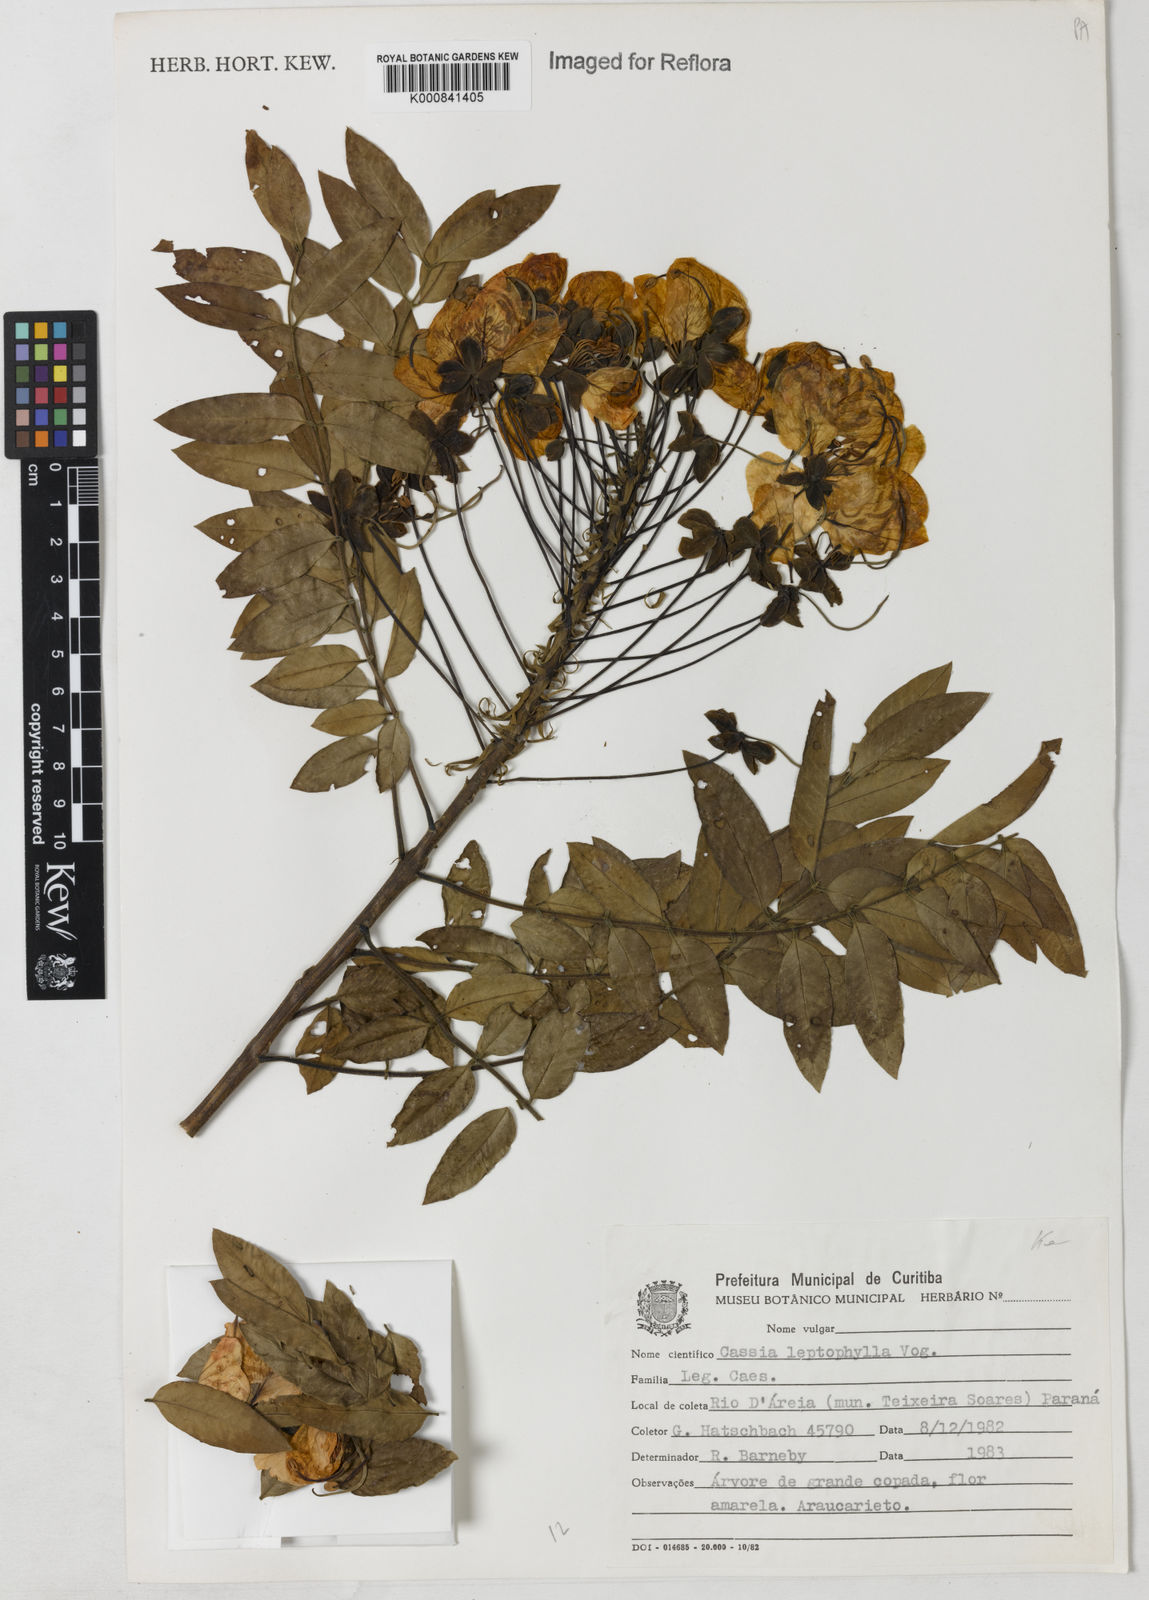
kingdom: Plantae
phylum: Tracheophyta
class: Magnoliopsida
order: Fabales
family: Fabaceae
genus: Cassia
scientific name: Cassia leptophylla
